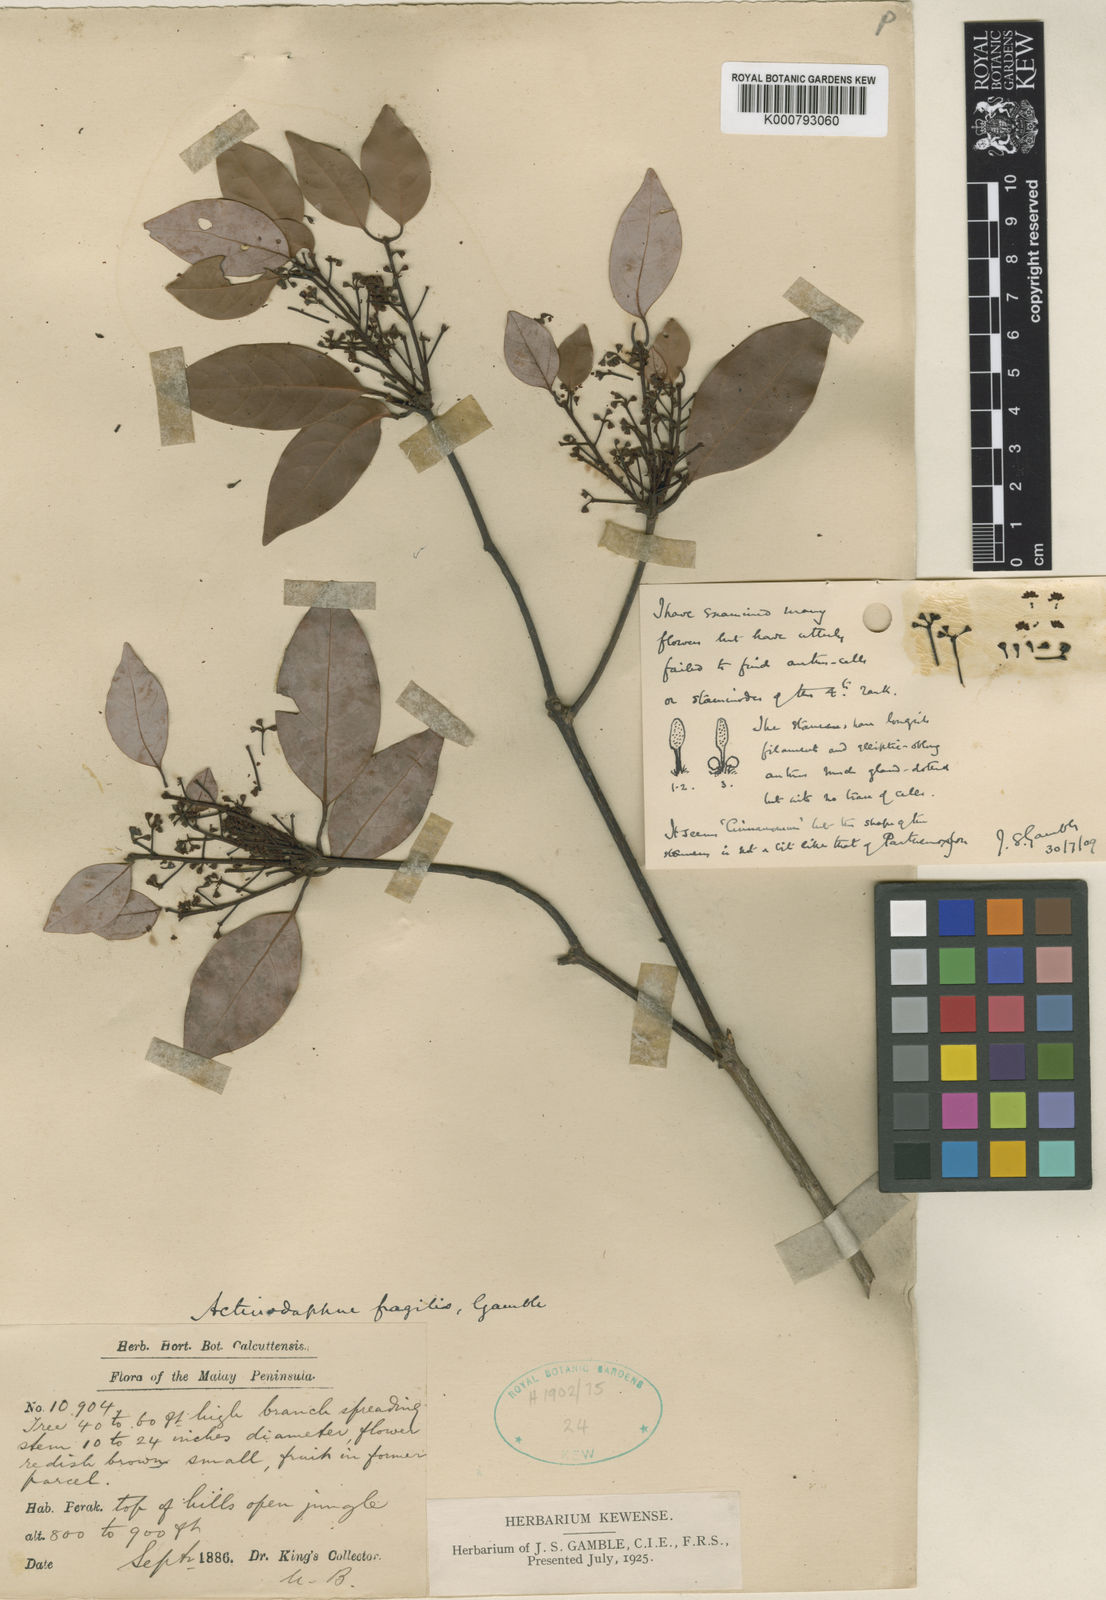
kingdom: Plantae
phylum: Tracheophyta
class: Magnoliopsida
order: Laurales
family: Lauraceae
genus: Actinodaphne
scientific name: Actinodaphne fragilis
